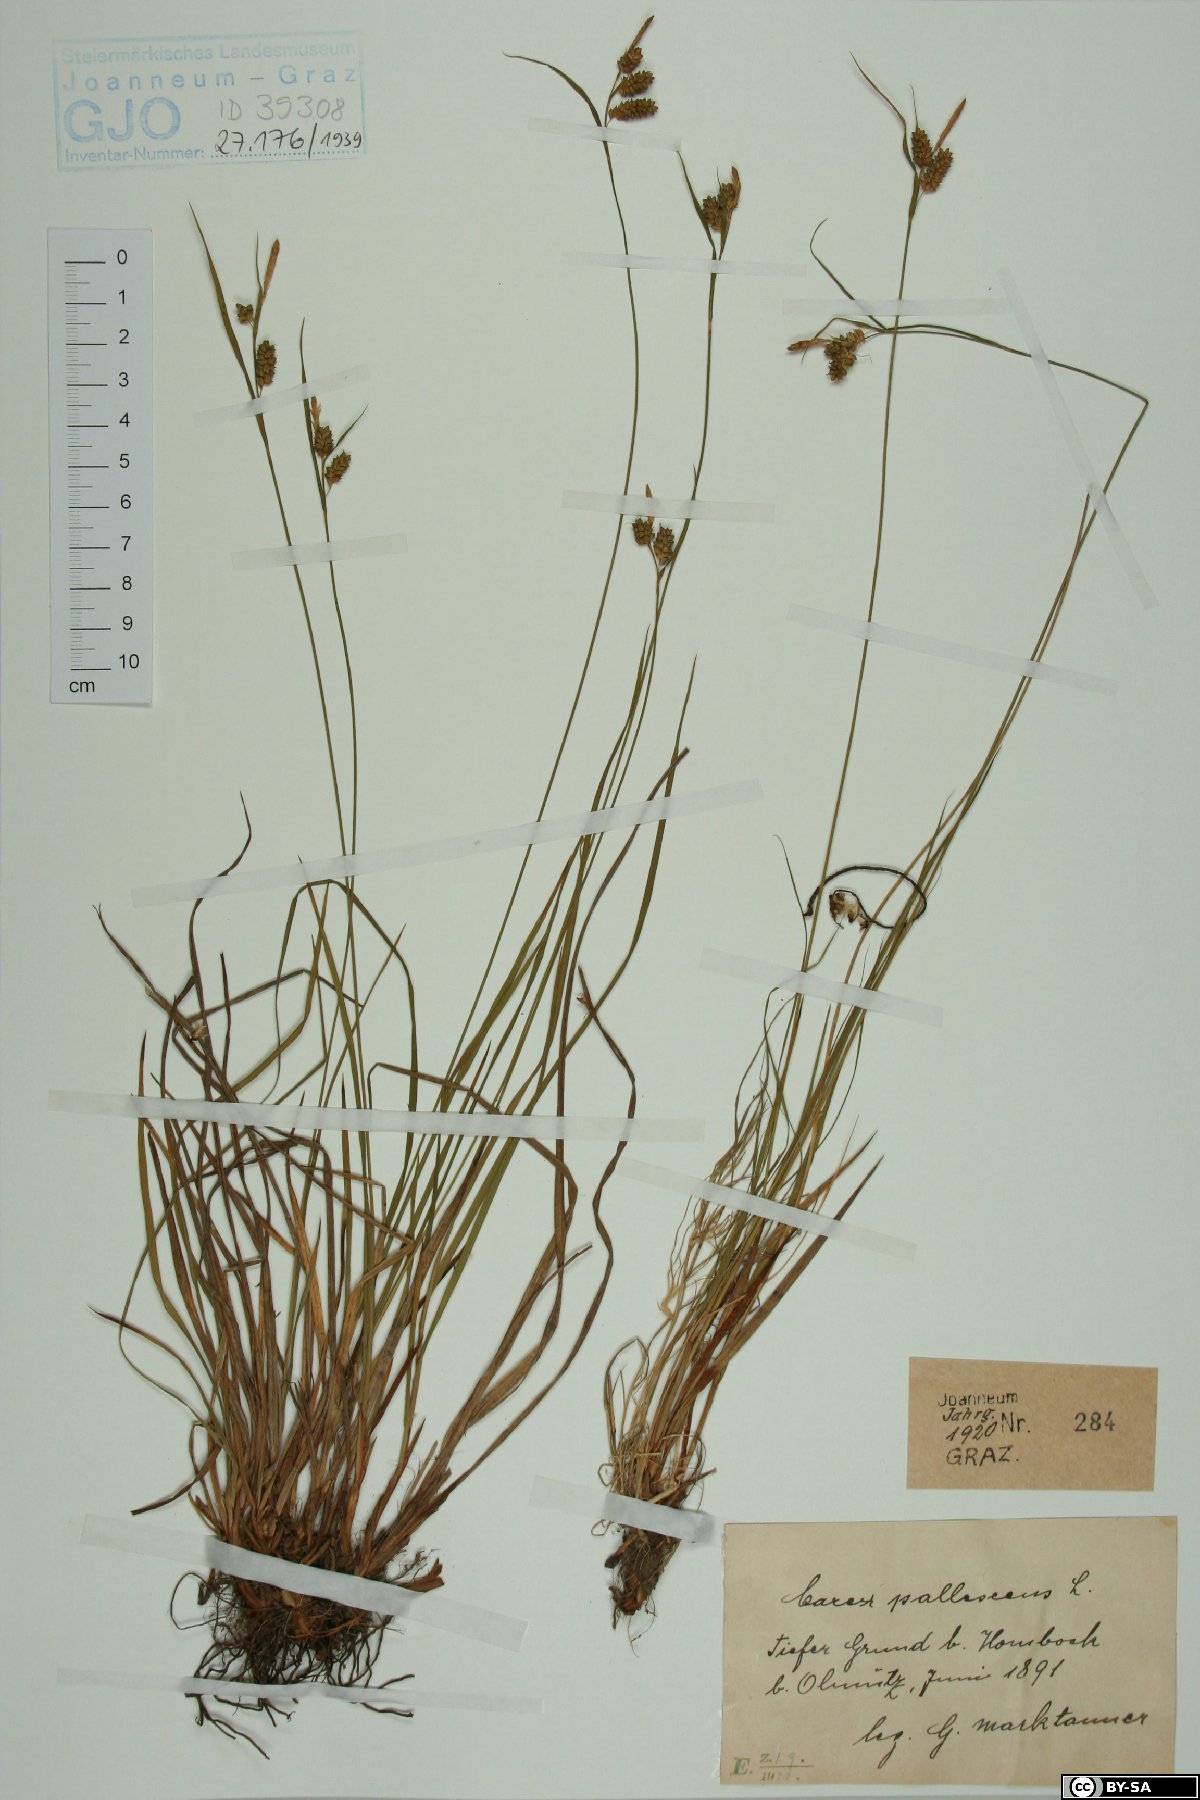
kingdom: Plantae
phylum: Tracheophyta
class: Liliopsida
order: Poales
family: Cyperaceae
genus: Carex
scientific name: Carex pallescens
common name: Pale sedge
